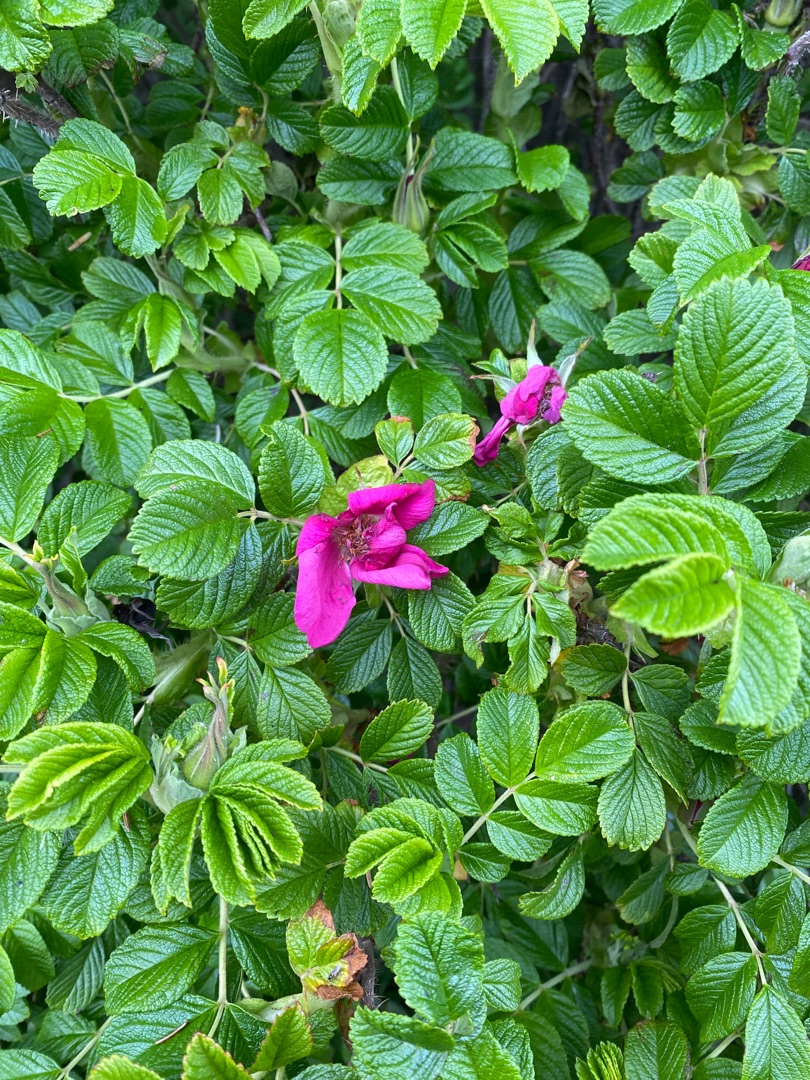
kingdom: Plantae
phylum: Tracheophyta
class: Magnoliopsida
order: Rosales
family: Rosaceae
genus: Rosa
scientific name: Rosa rugosa
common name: Rynket rose
